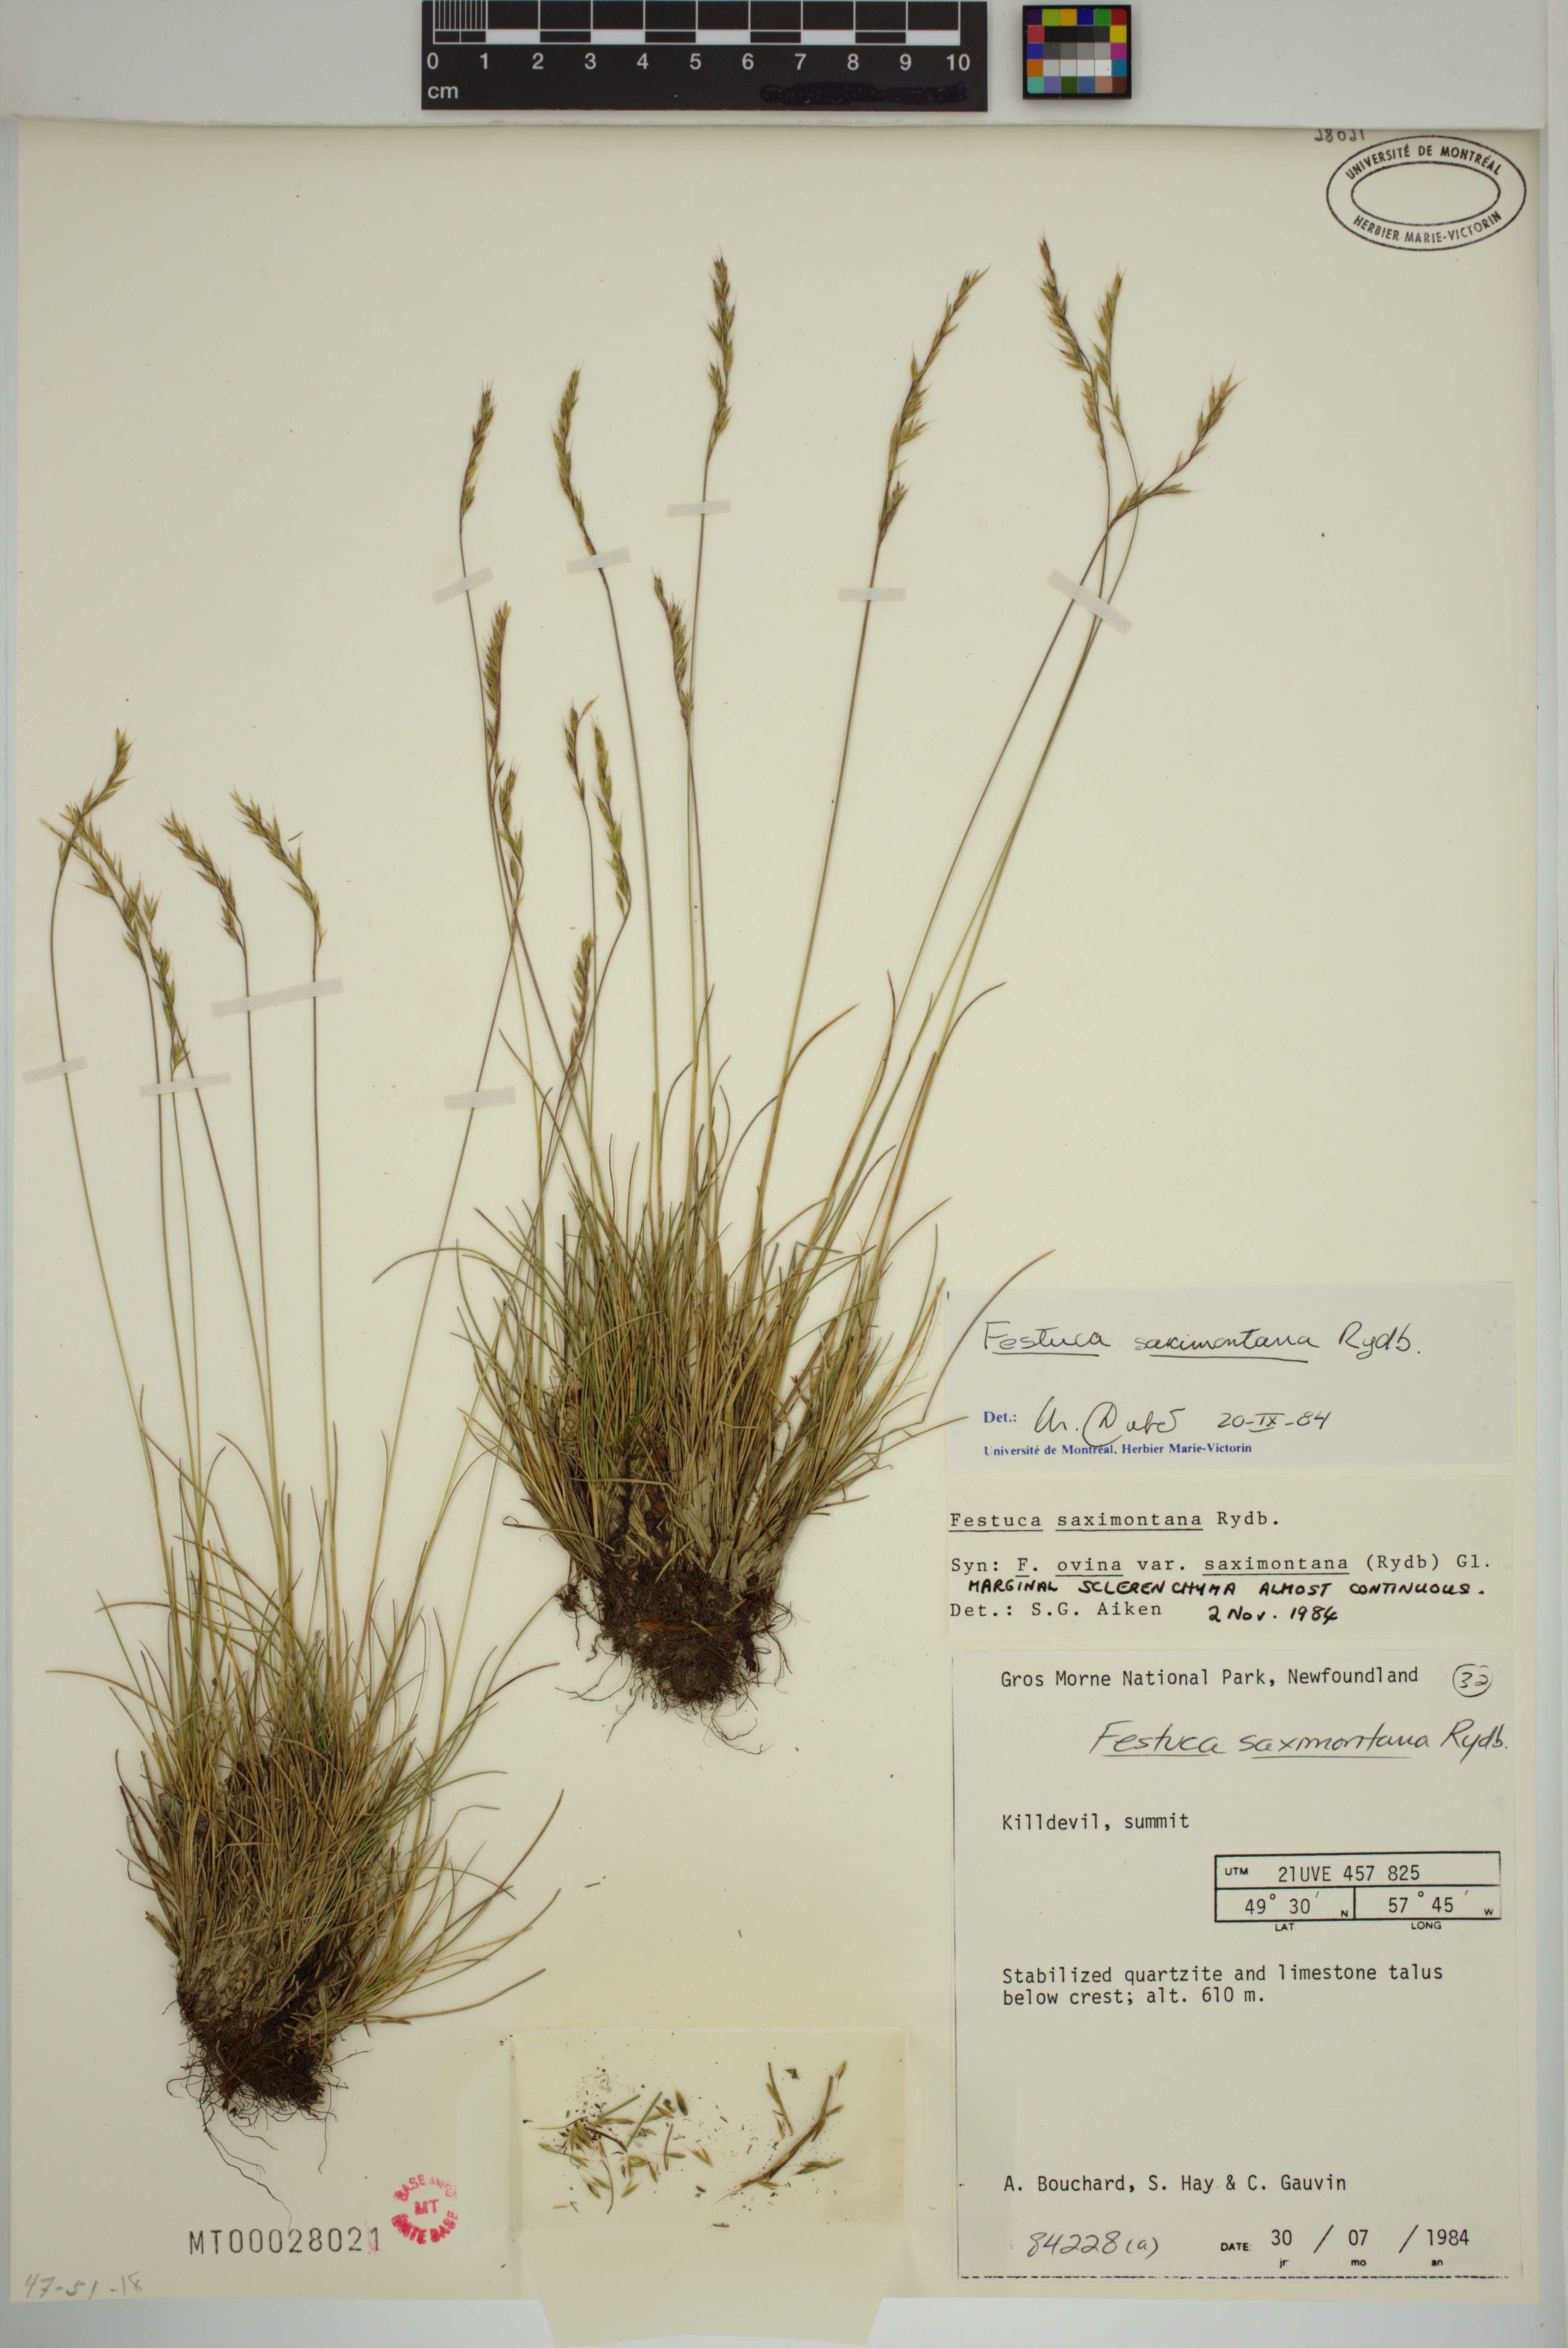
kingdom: Plantae
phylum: Tracheophyta
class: Liliopsida
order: Poales
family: Poaceae
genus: Festuca
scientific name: Festuca saximontana
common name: Mountain fescue
